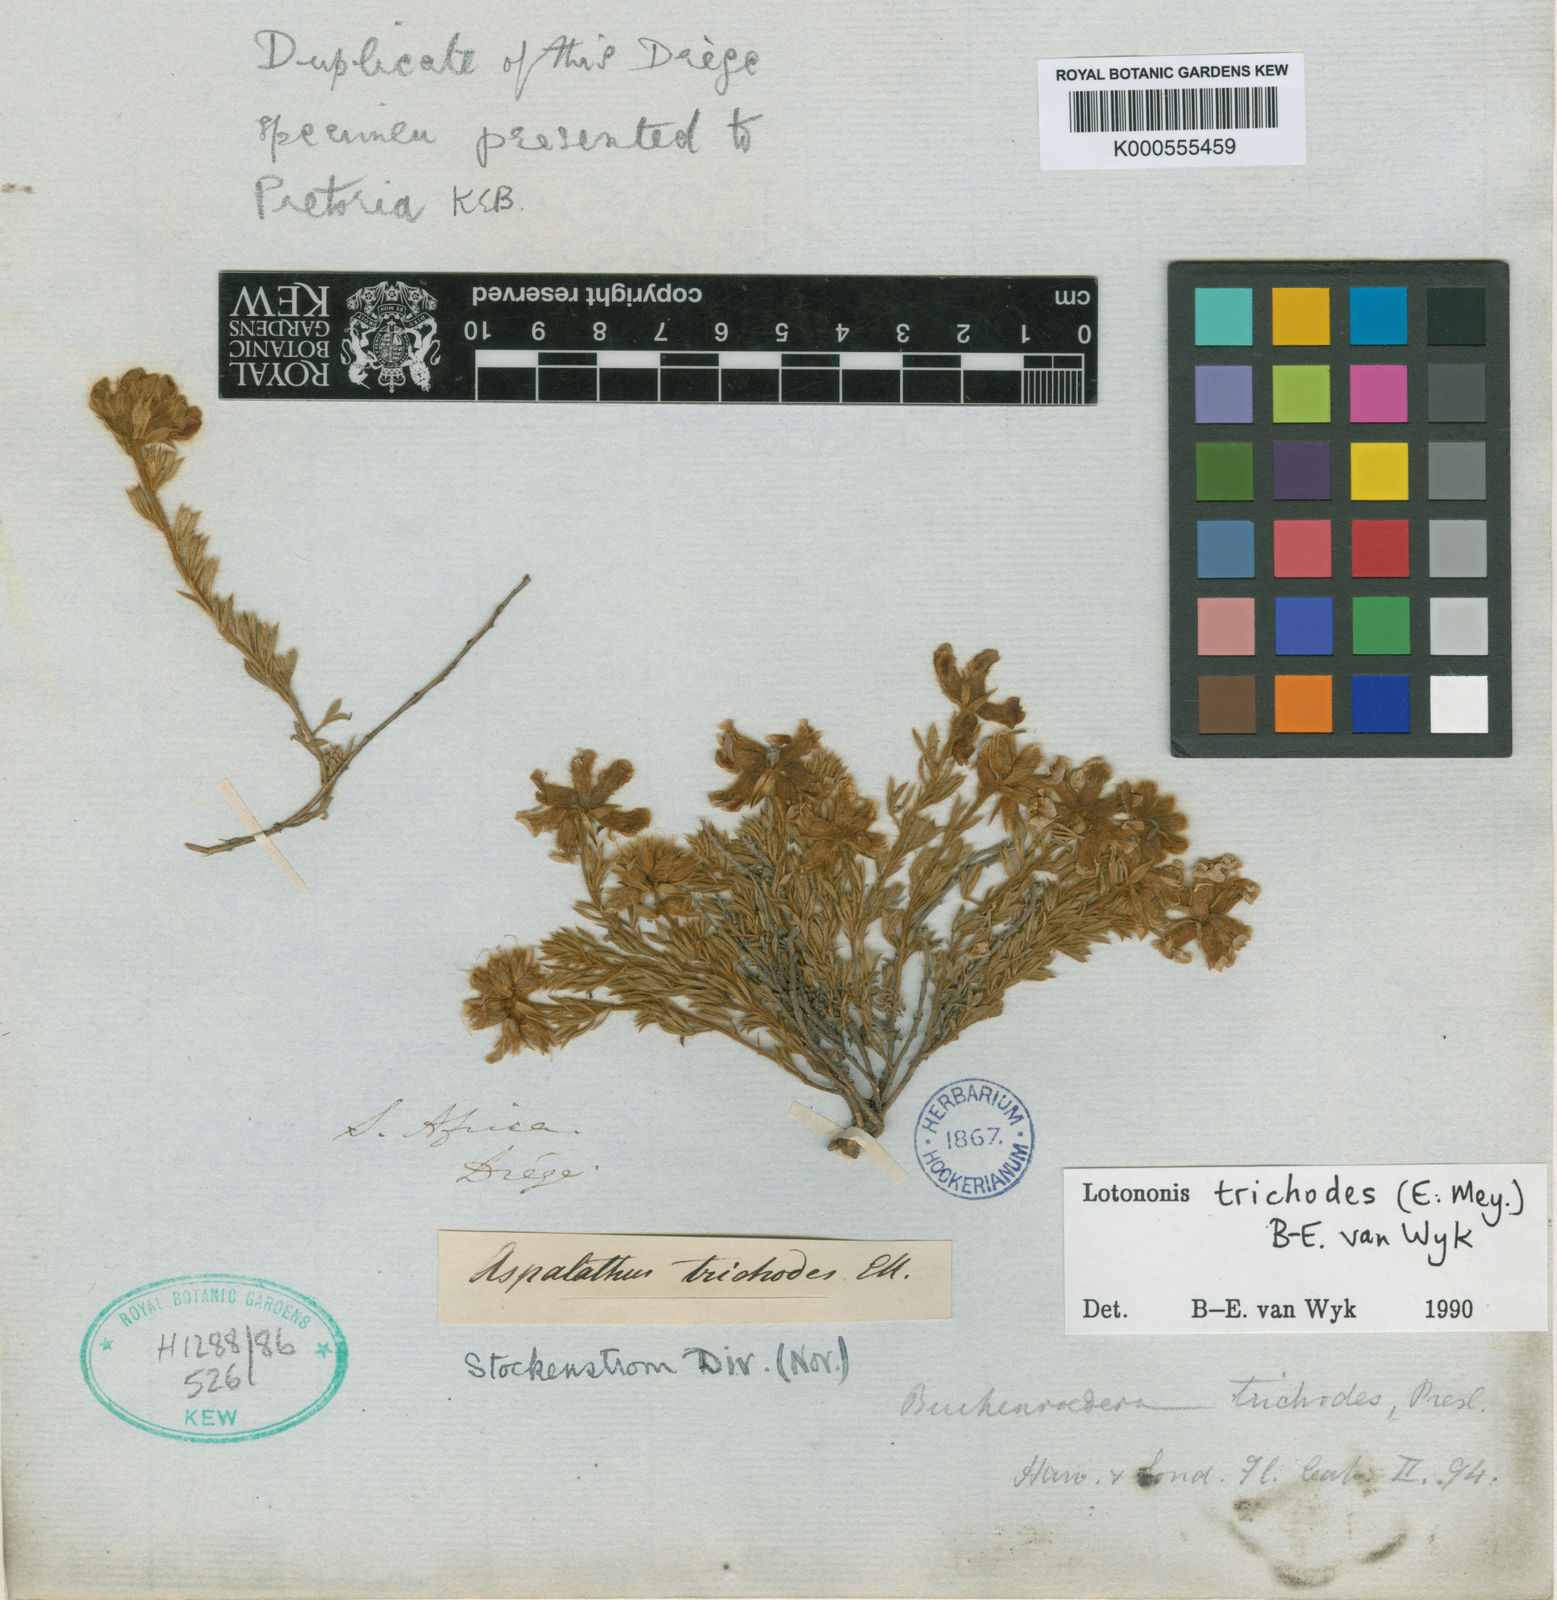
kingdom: Plantae
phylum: Tracheophyta
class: Magnoliopsida
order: Fabales
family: Fabaceae
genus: Lotononis
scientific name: Lotononis trichodes
